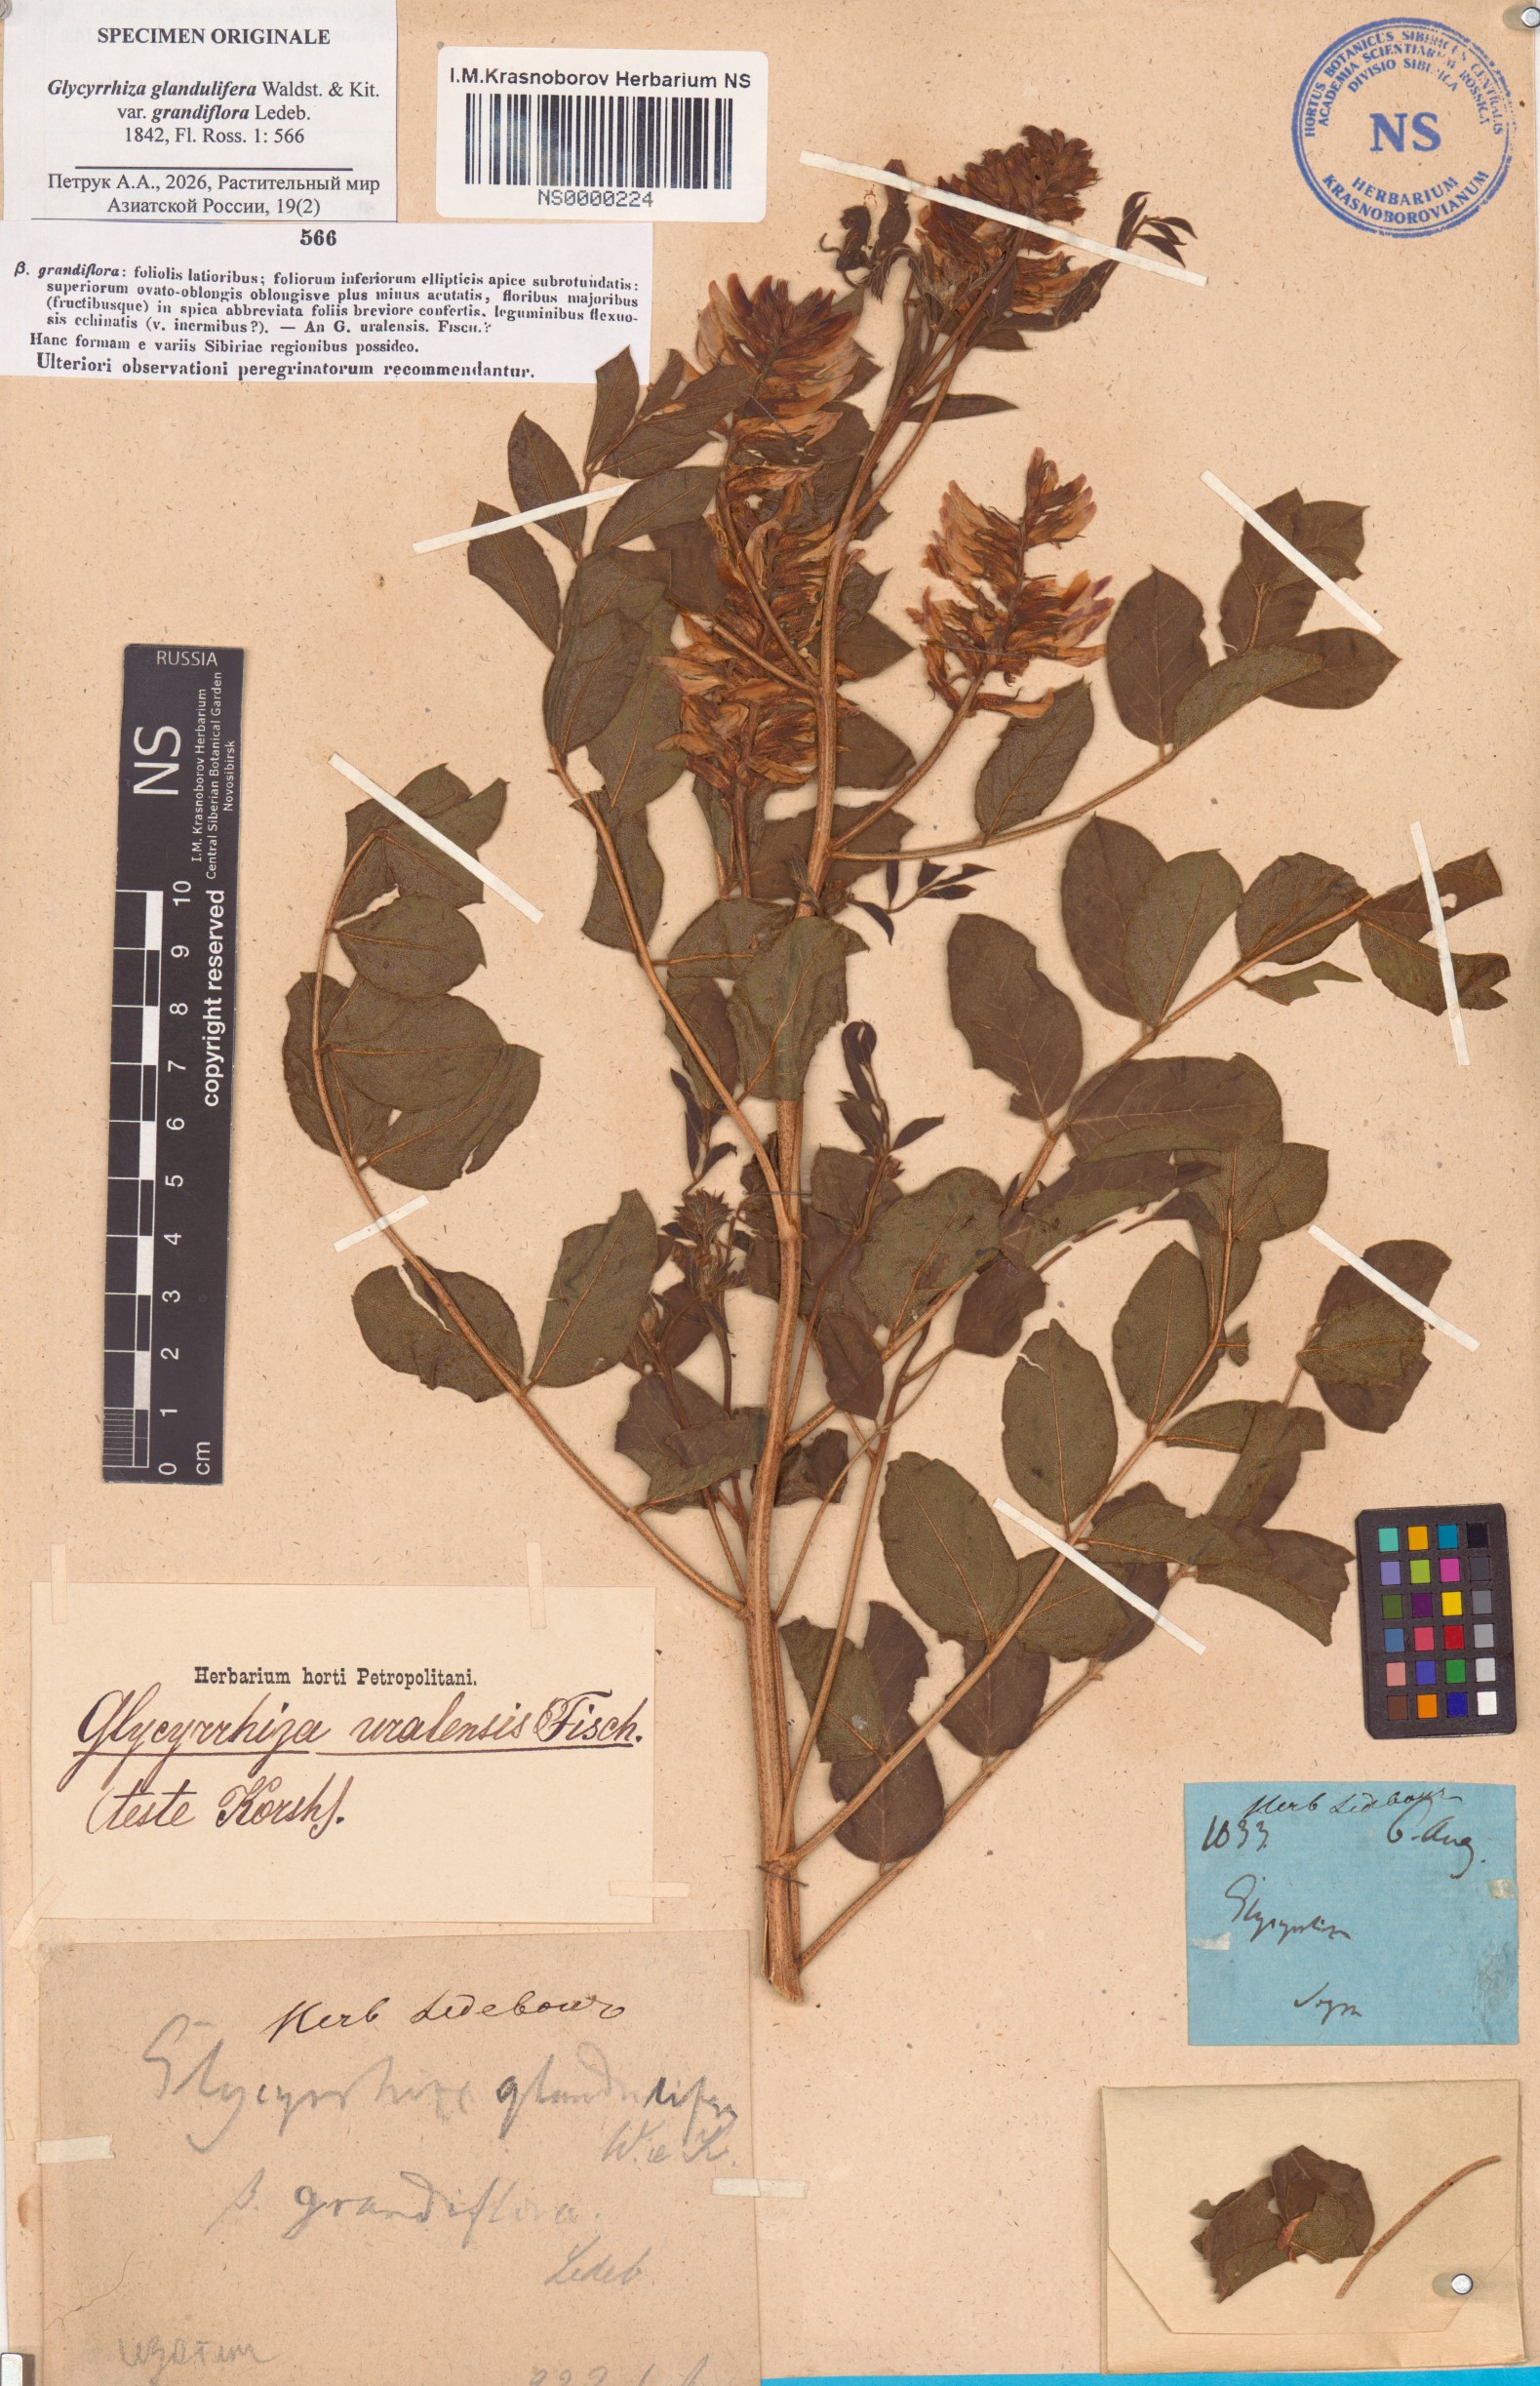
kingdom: Plantae
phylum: Tracheophyta
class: Magnoliopsida
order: Fabales
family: Fabaceae
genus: Glycyrrhiza
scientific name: Glycyrrhiza uralensis
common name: Chinese licorice
